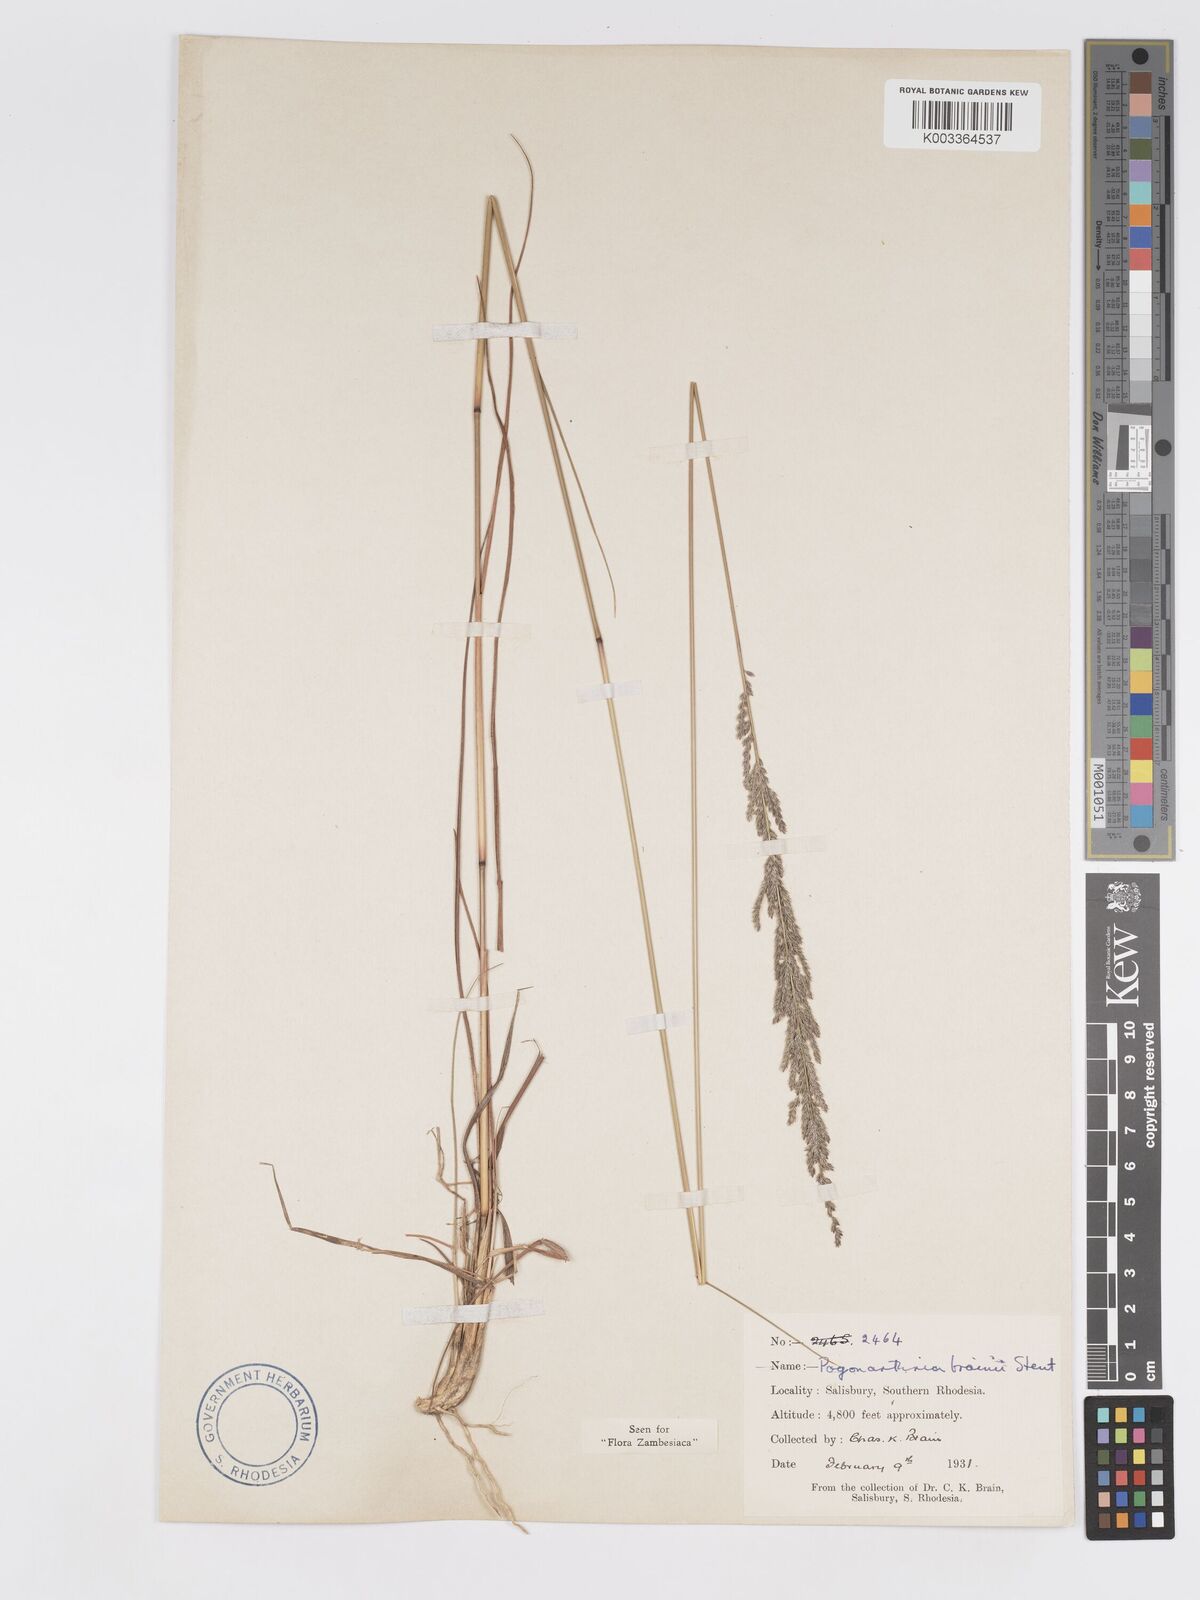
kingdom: Plantae
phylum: Tracheophyta
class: Liliopsida
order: Poales
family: Poaceae
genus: Eragrostis
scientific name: Eragrostis brainii
